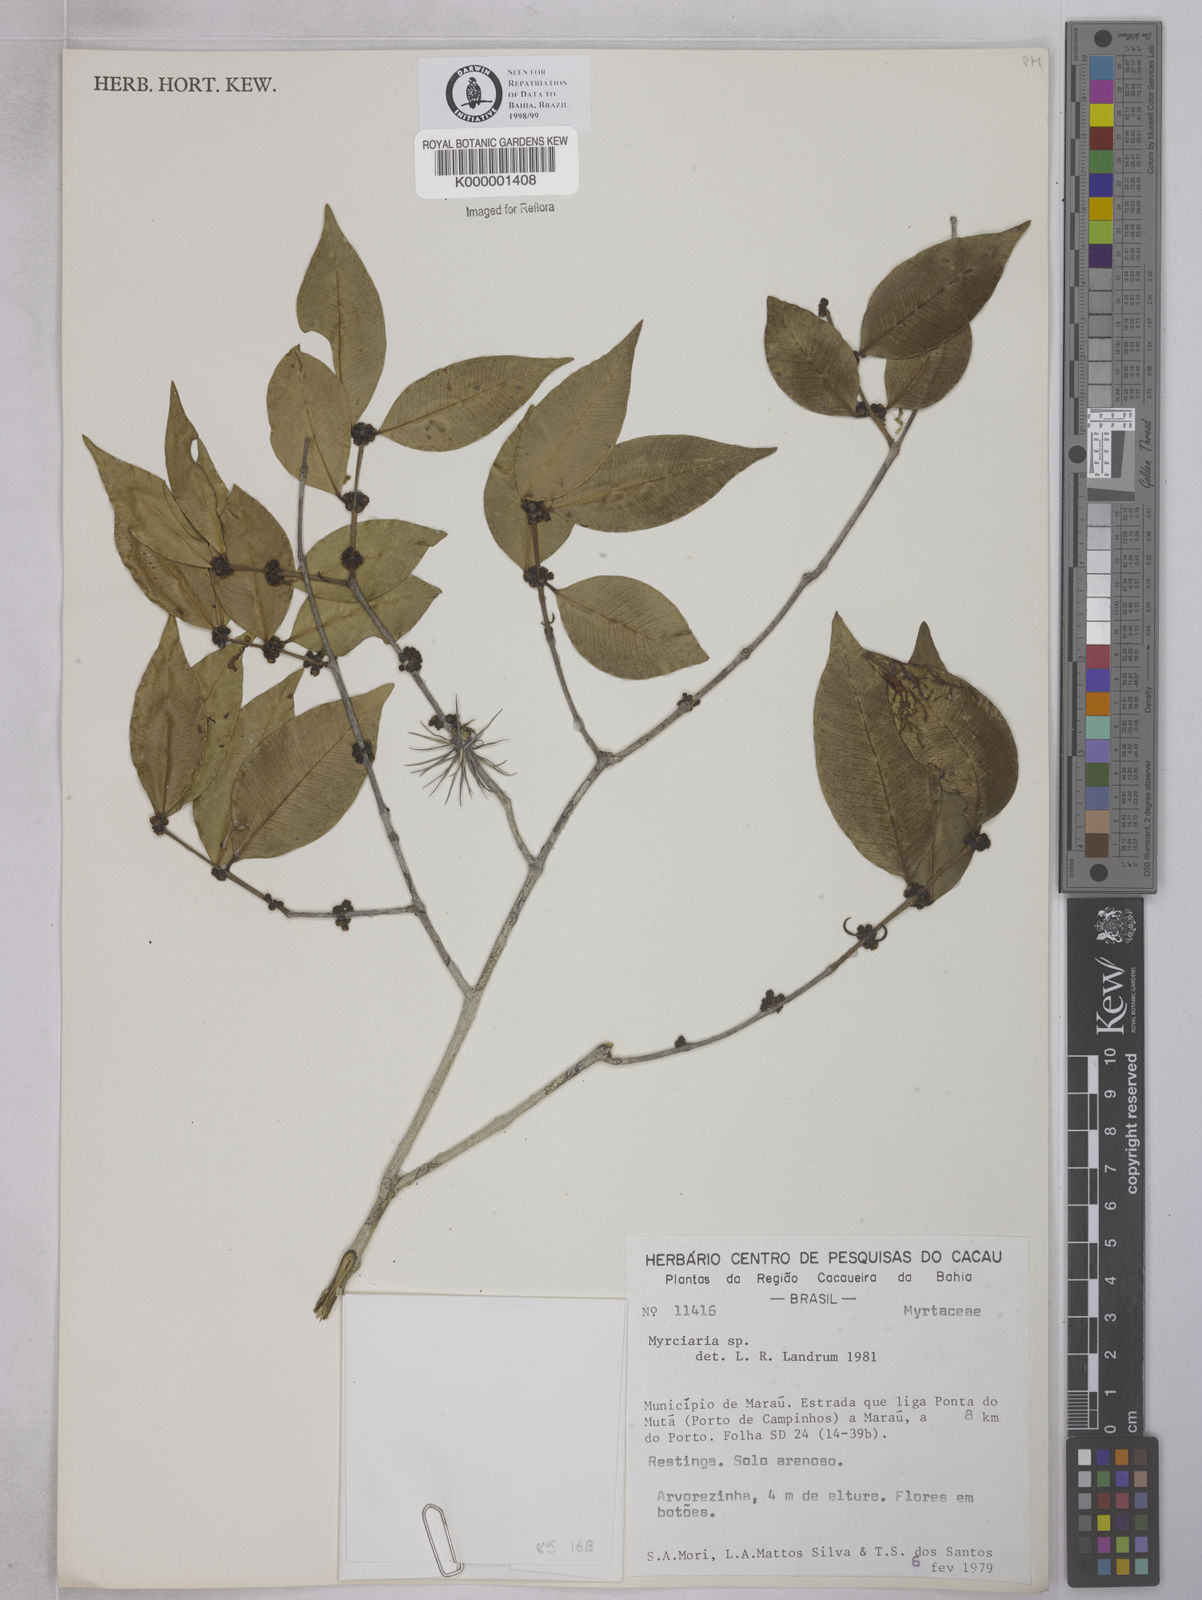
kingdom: Plantae
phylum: Tracheophyta
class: Magnoliopsida
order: Myrtales
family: Myrtaceae
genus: Myrciaria
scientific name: Myrciaria
